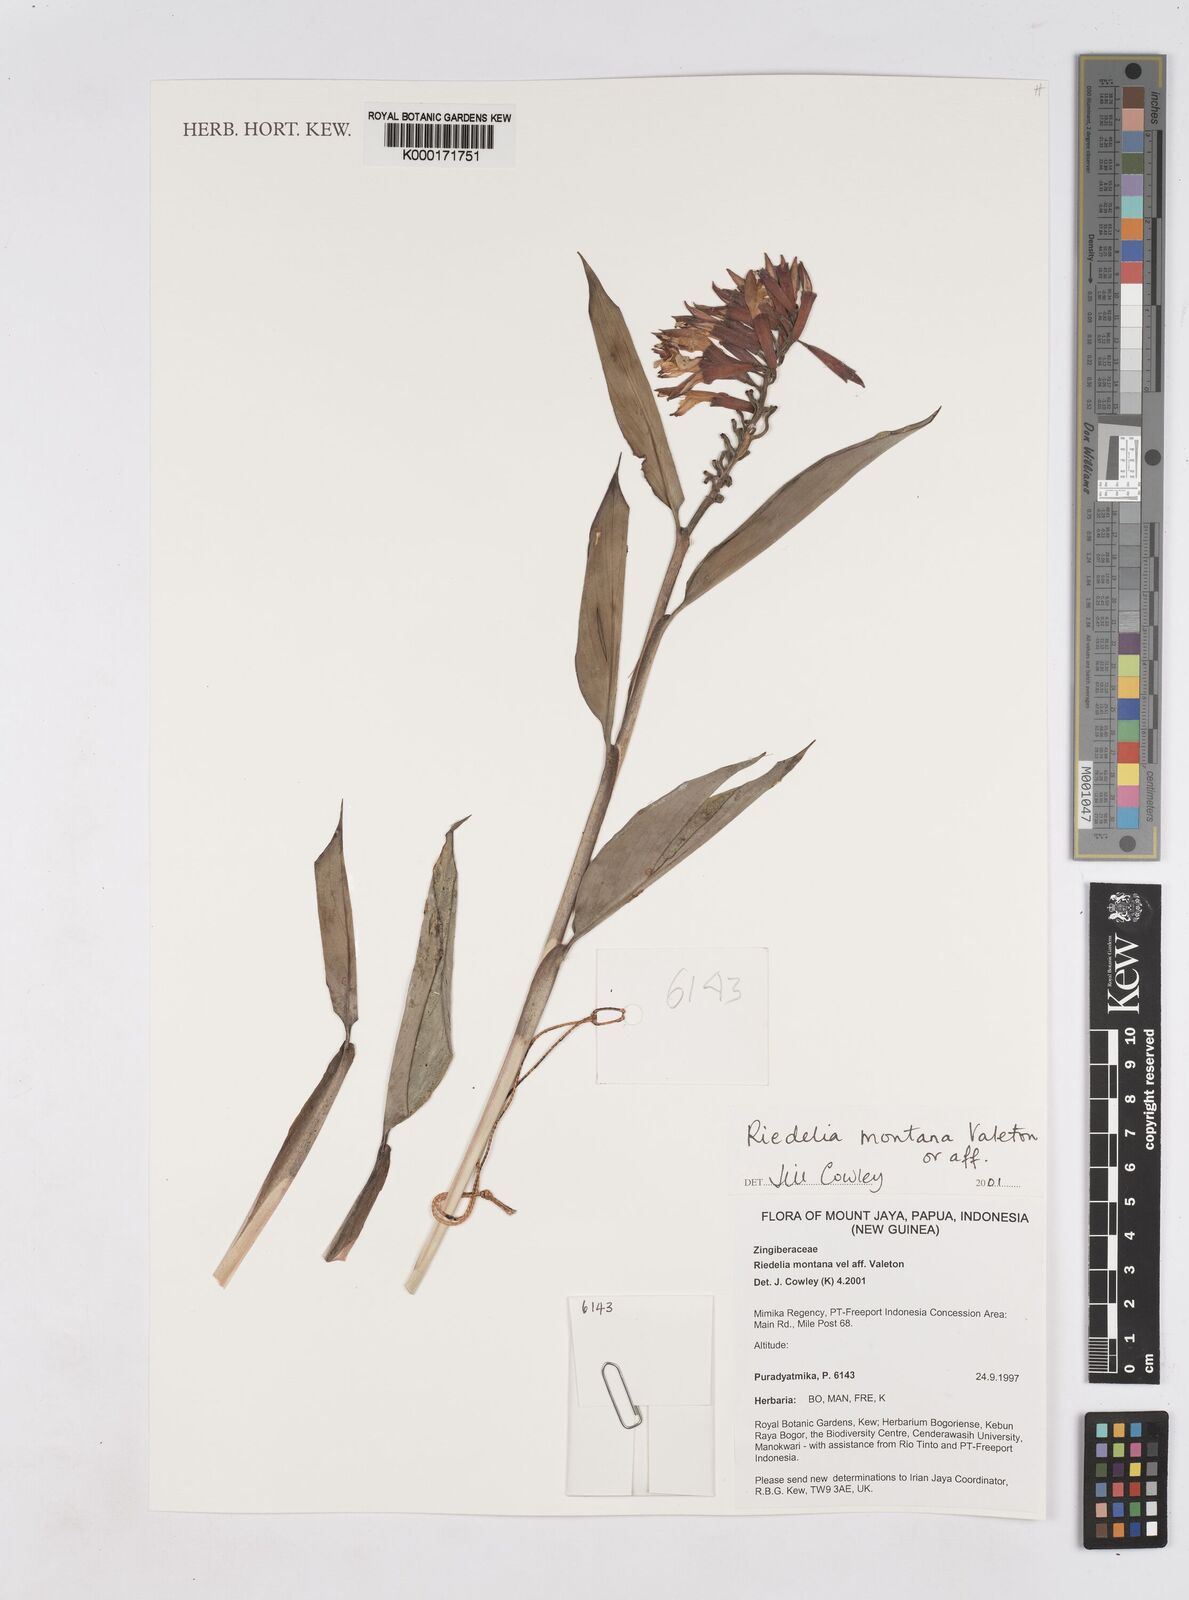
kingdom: Plantae
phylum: Tracheophyta
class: Liliopsida
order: Zingiberales
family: Zingiberaceae
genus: Riedelia
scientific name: Riedelia montana
